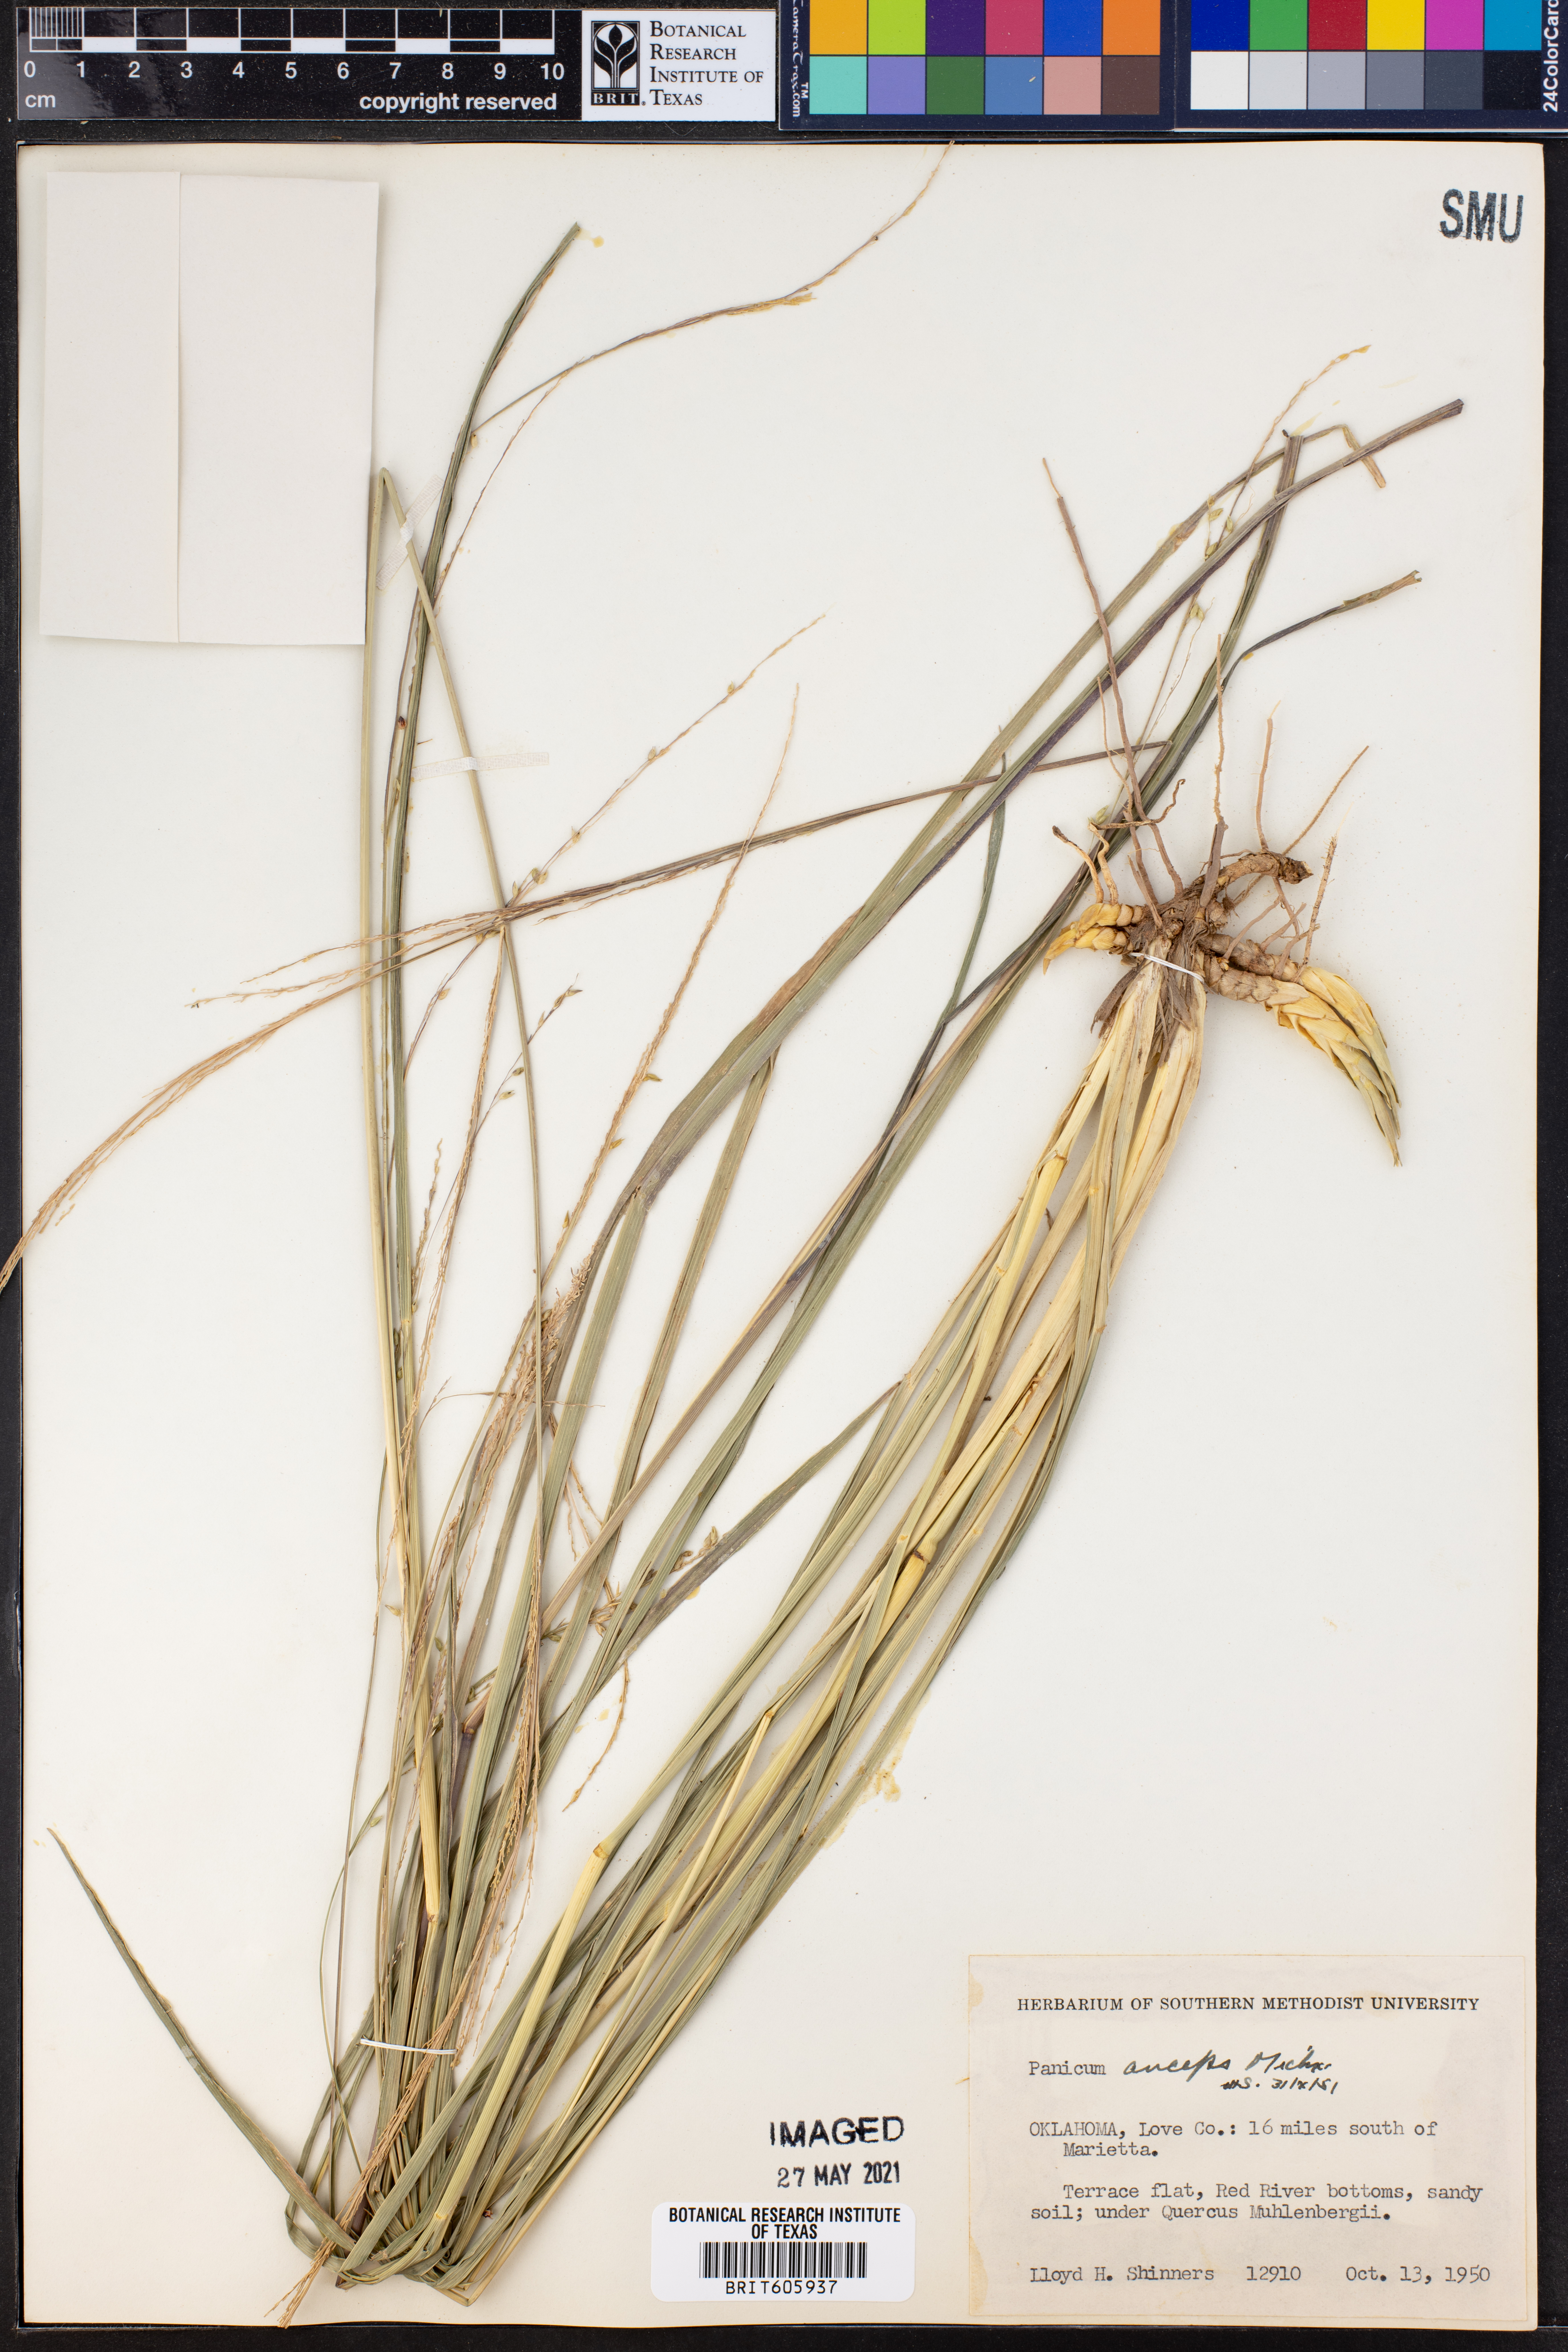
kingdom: Plantae
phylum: Tracheophyta
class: Liliopsida
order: Poales
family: Poaceae
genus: Coleataenia
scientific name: Coleataenia anceps
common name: Beaked panic grass
